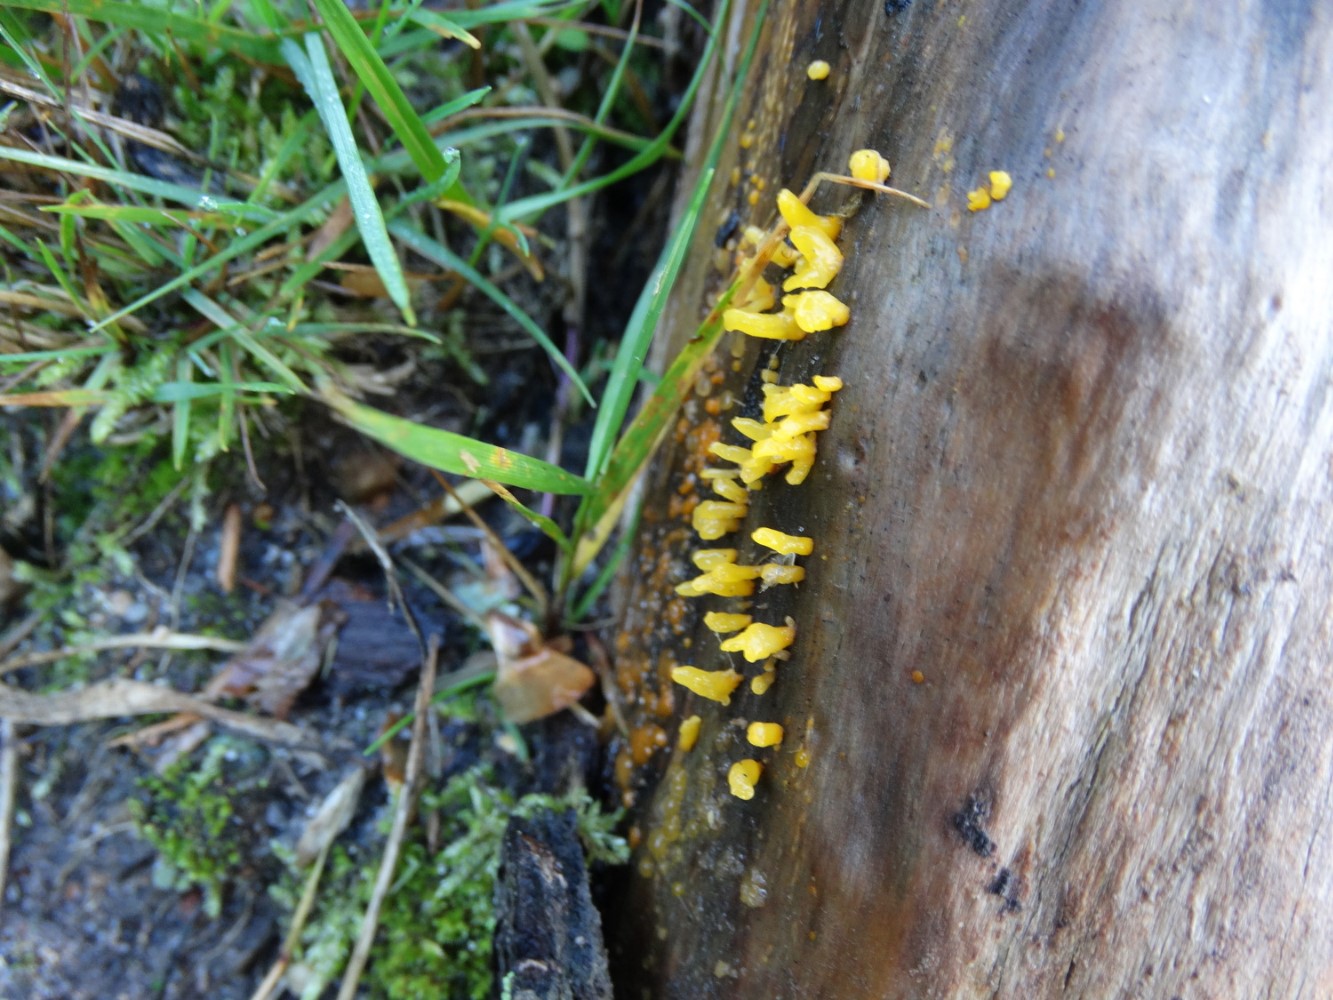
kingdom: Fungi
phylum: Basidiomycota
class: Dacrymycetes
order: Dacrymycetales
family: Dacrymycetaceae
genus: Calocera
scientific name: Calocera furcata
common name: fyrre-guldgaffel
